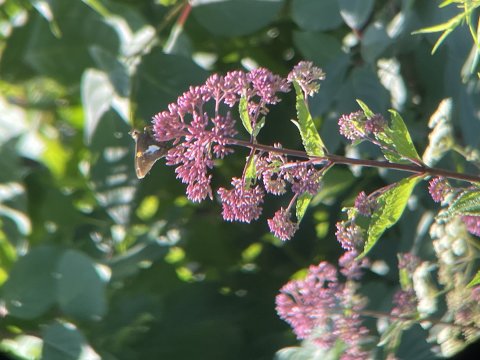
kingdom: Animalia
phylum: Arthropoda
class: Insecta
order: Lepidoptera
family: Hesperiidae
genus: Epargyreus
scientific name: Epargyreus clarus
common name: Silver-spotted Skipper
